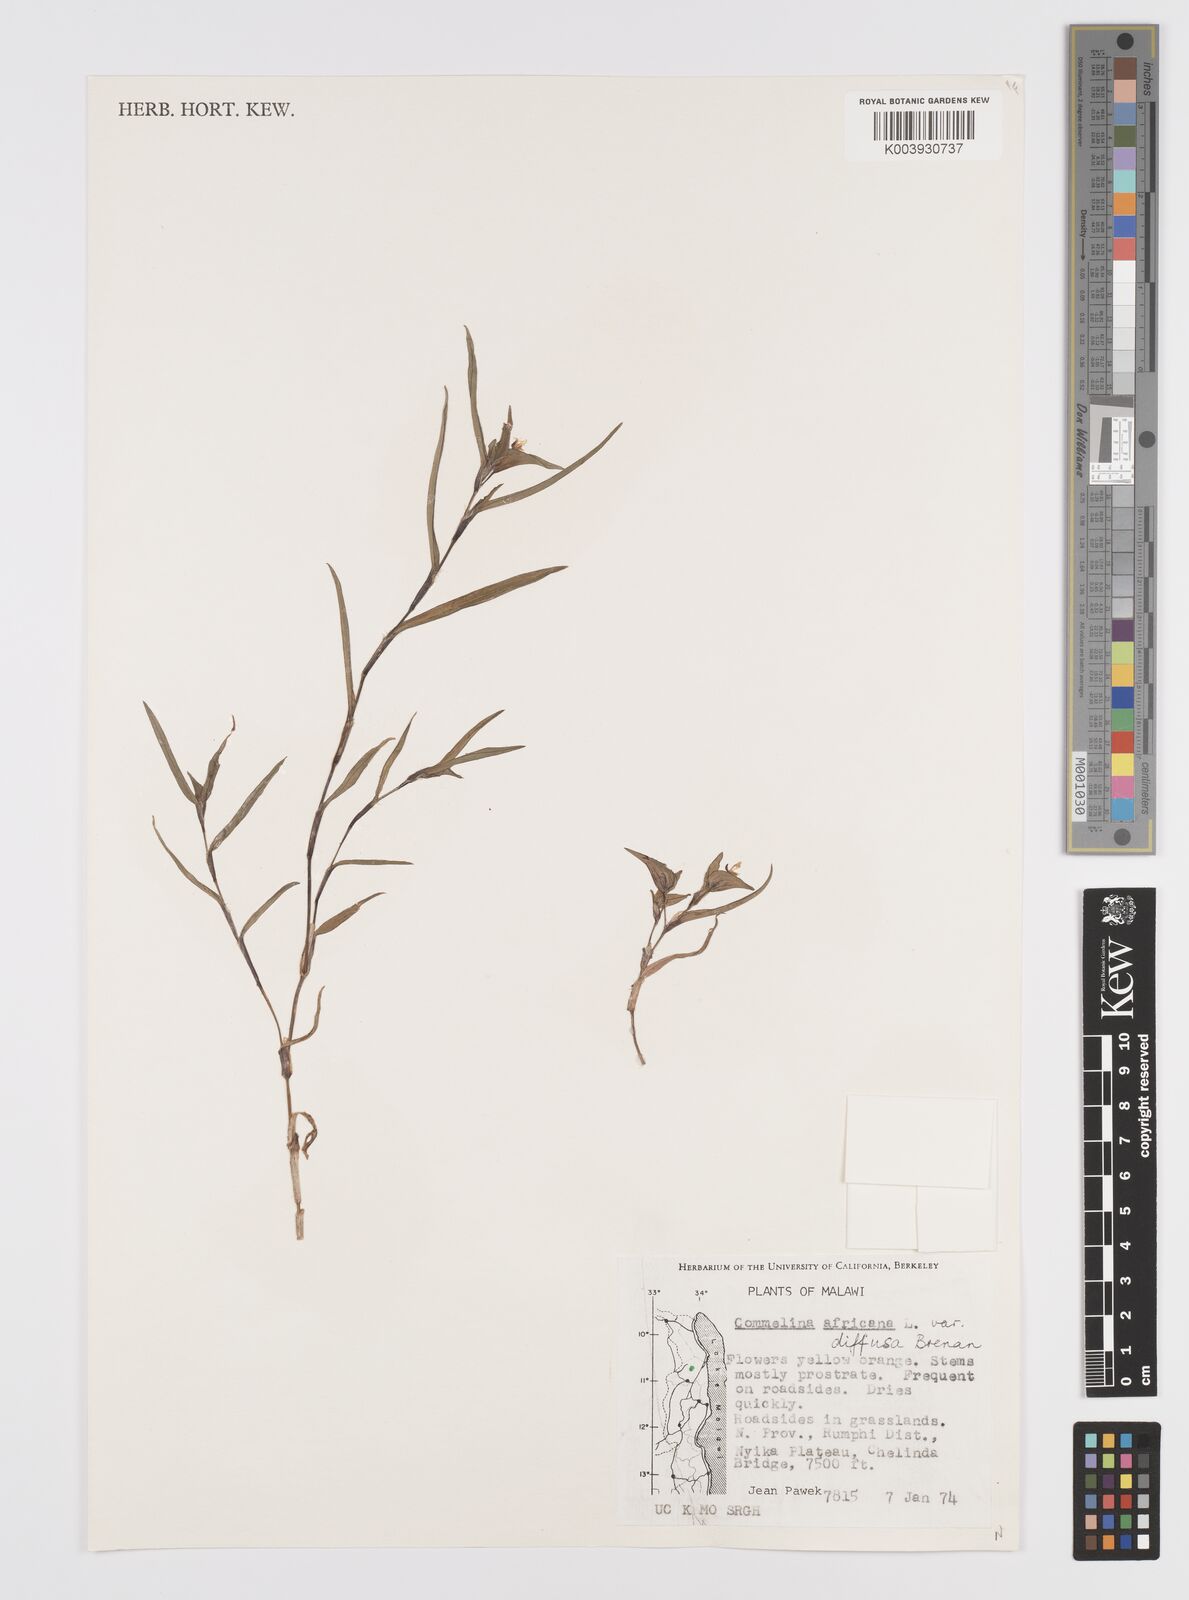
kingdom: Plantae
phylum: Tracheophyta
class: Liliopsida
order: Commelinales
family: Commelinaceae
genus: Commelina
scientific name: Commelina africana
